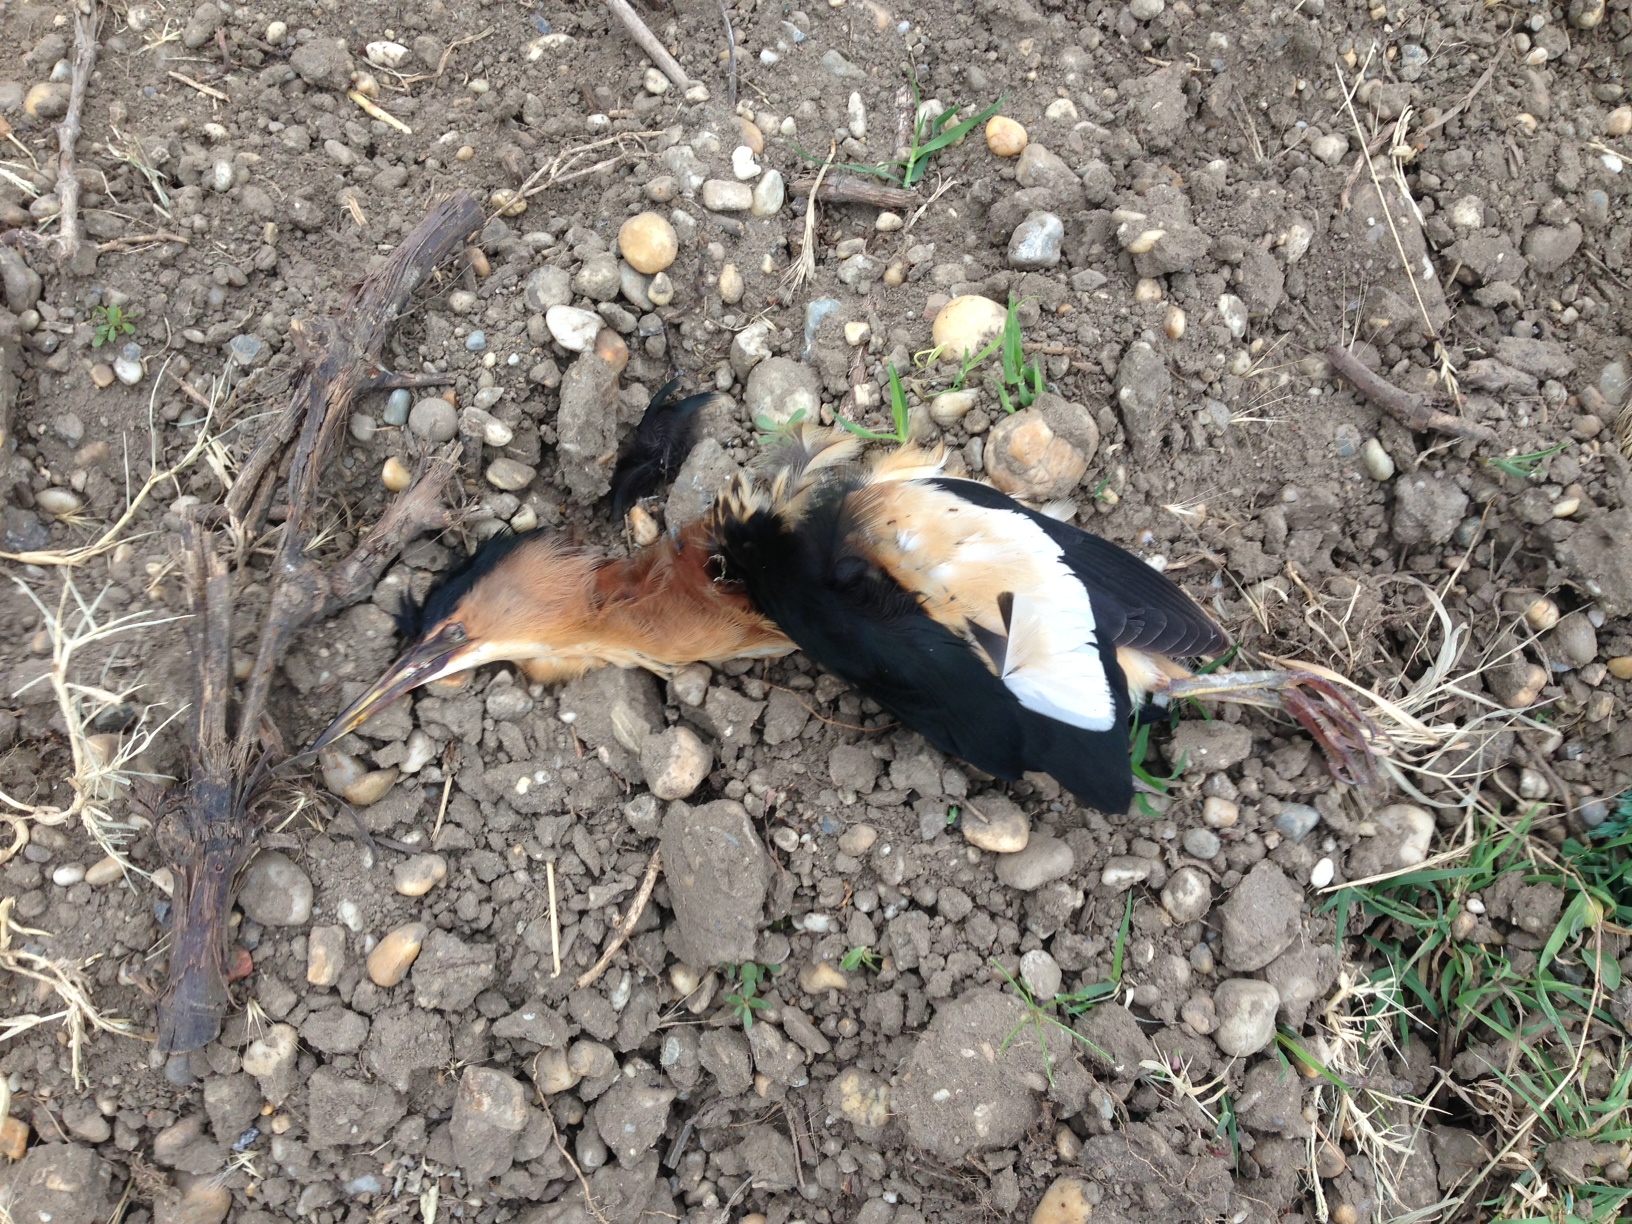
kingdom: Animalia
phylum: Chordata
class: Aves
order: Pelecaniformes
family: Ardeidae
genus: Ixobrychus
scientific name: Ixobrychus minutus
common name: Little bittern
